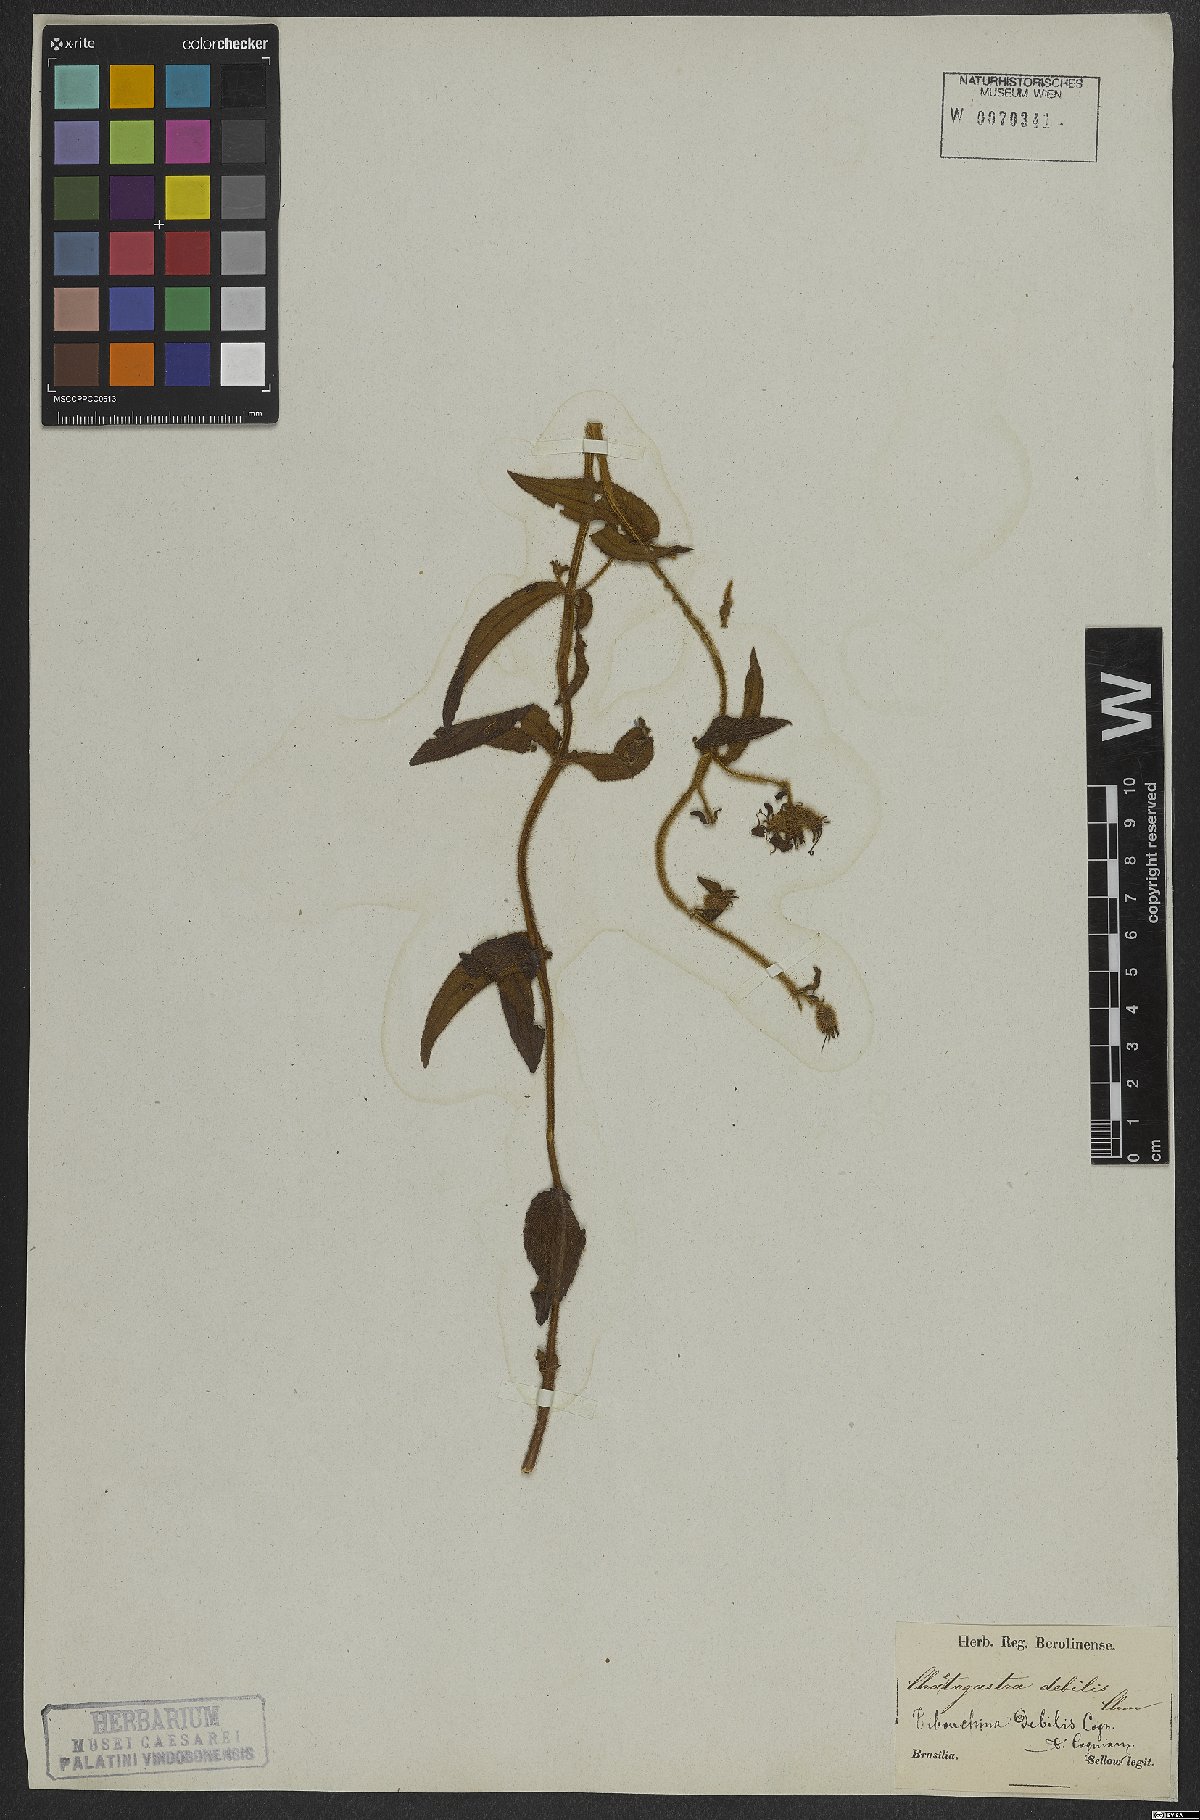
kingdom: Plantae
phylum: Tracheophyta
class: Magnoliopsida
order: Myrtales
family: Melastomataceae
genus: Chaetogastra
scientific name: Chaetogastra debilis
